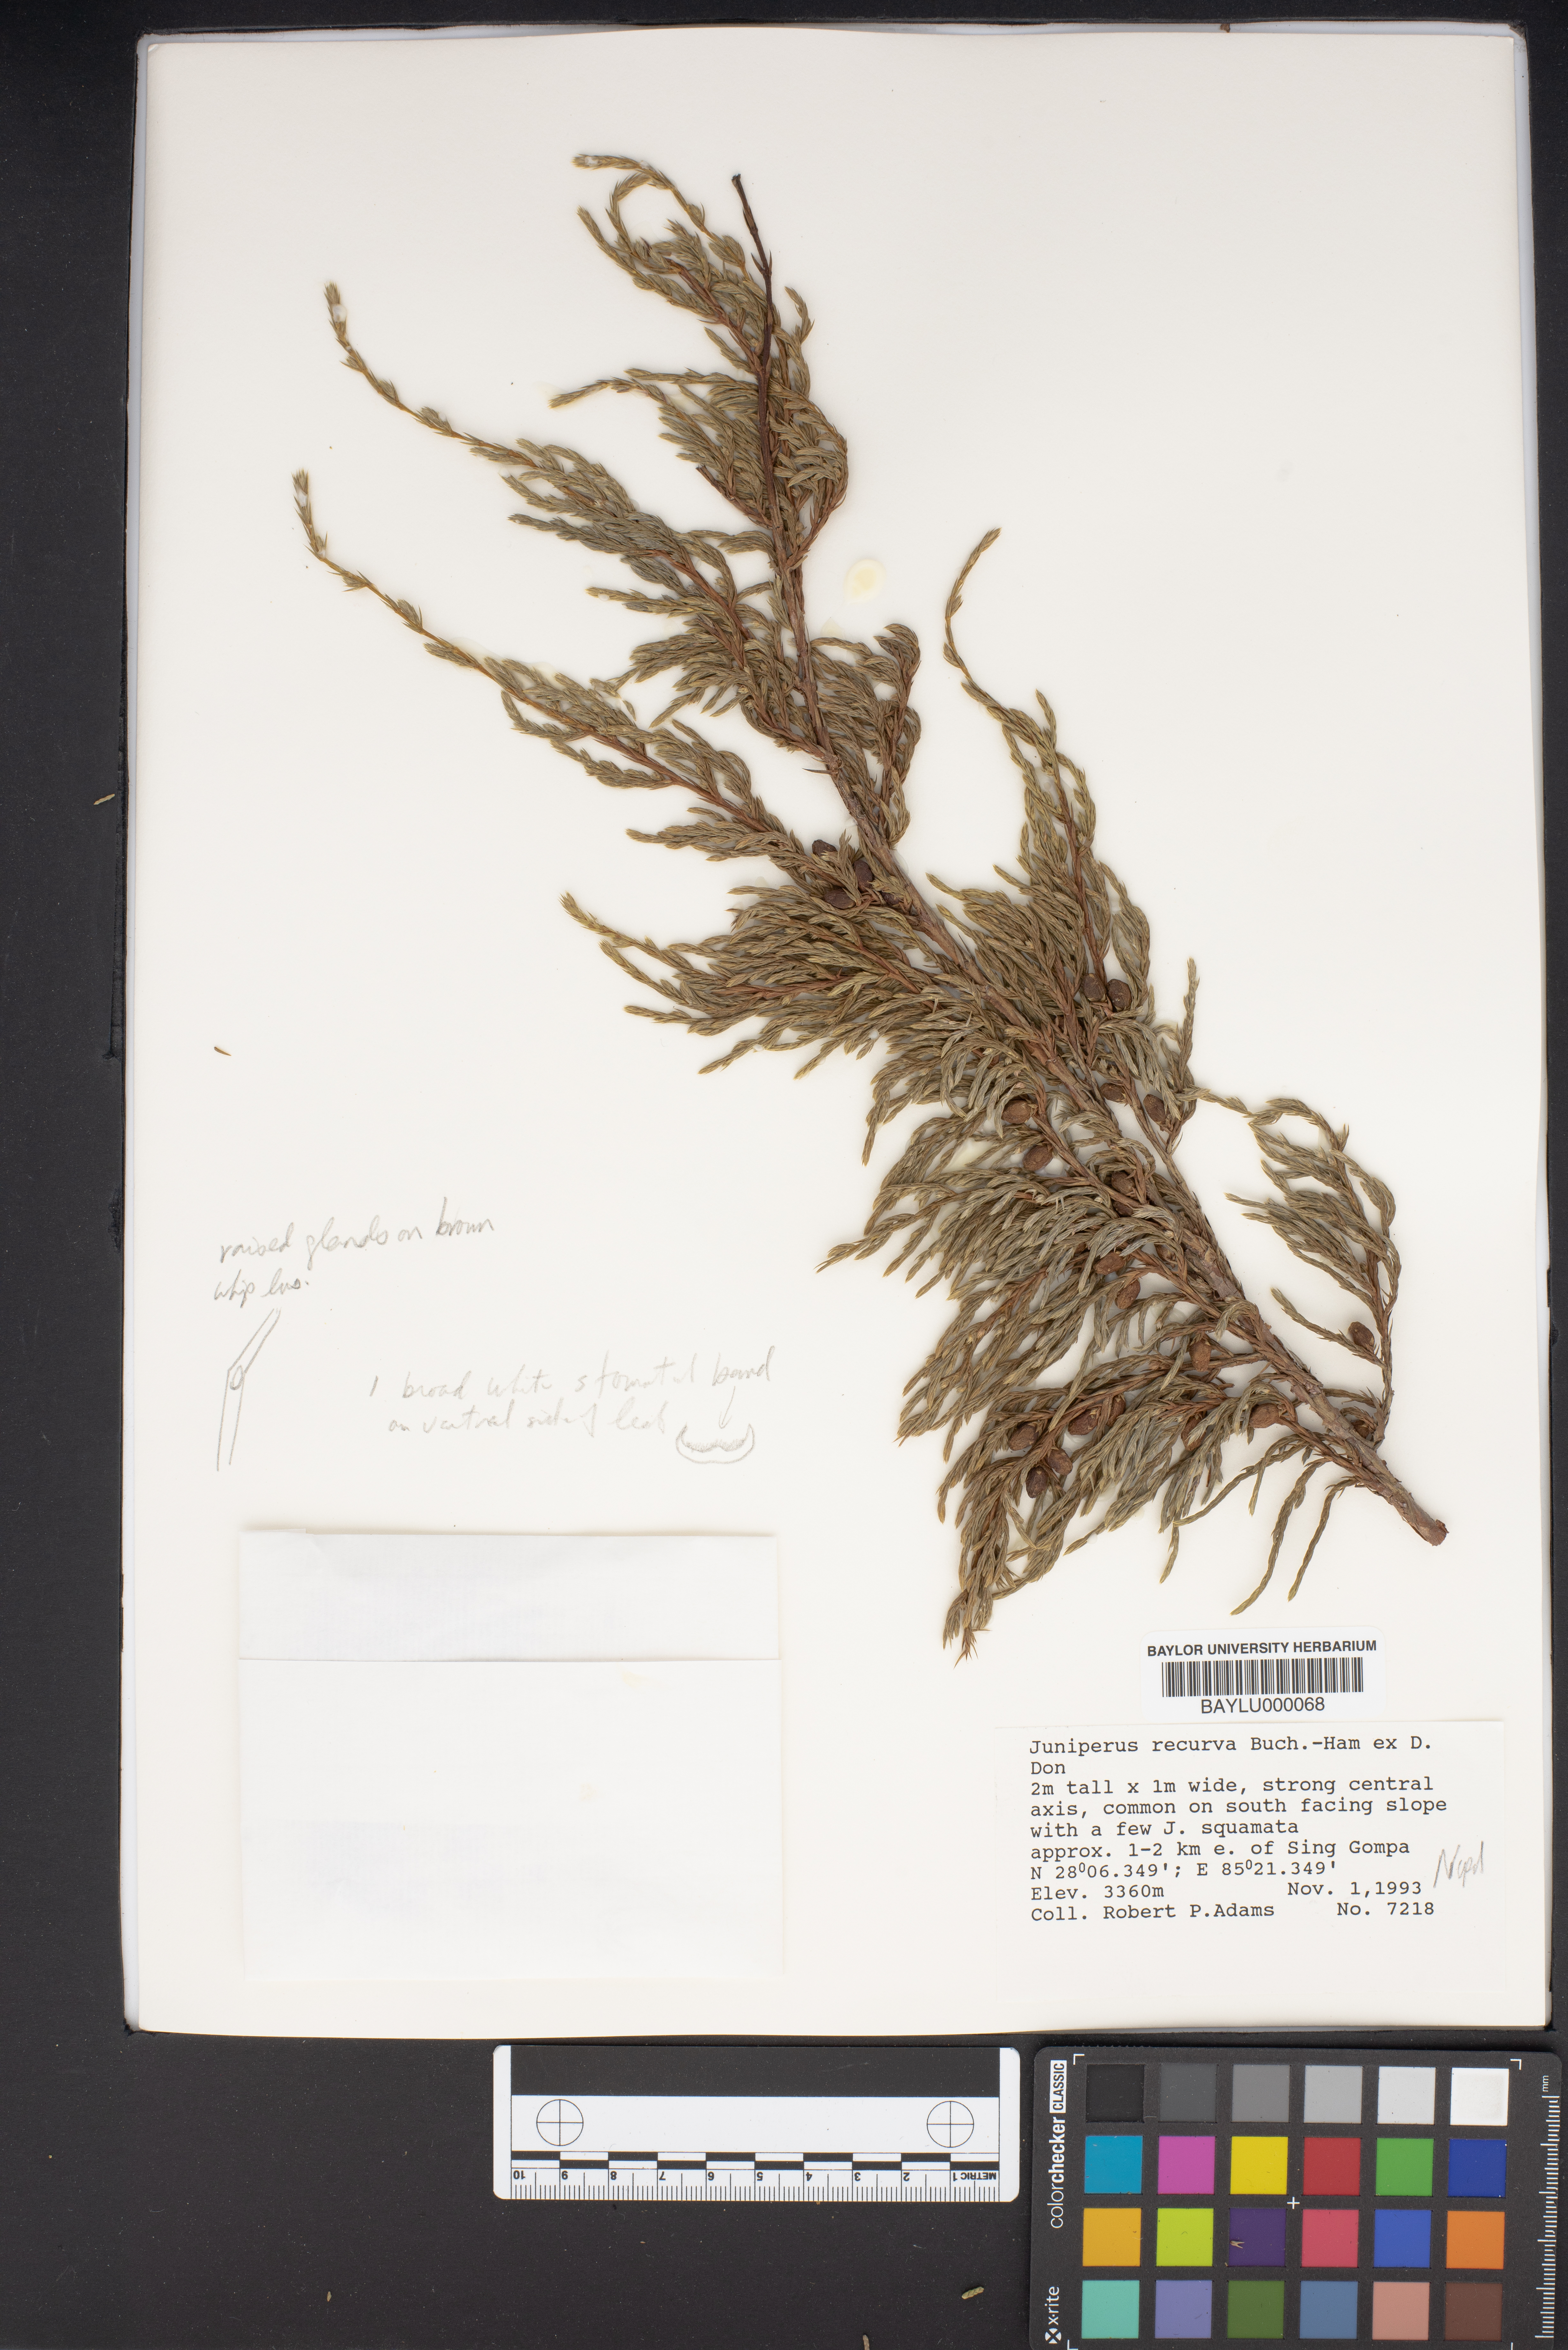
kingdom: Plantae
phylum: Tracheophyta
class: Pinopsida
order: Pinales
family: Cupressaceae
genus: Juniperus
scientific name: Juniperus recurva
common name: Drooping juniper
